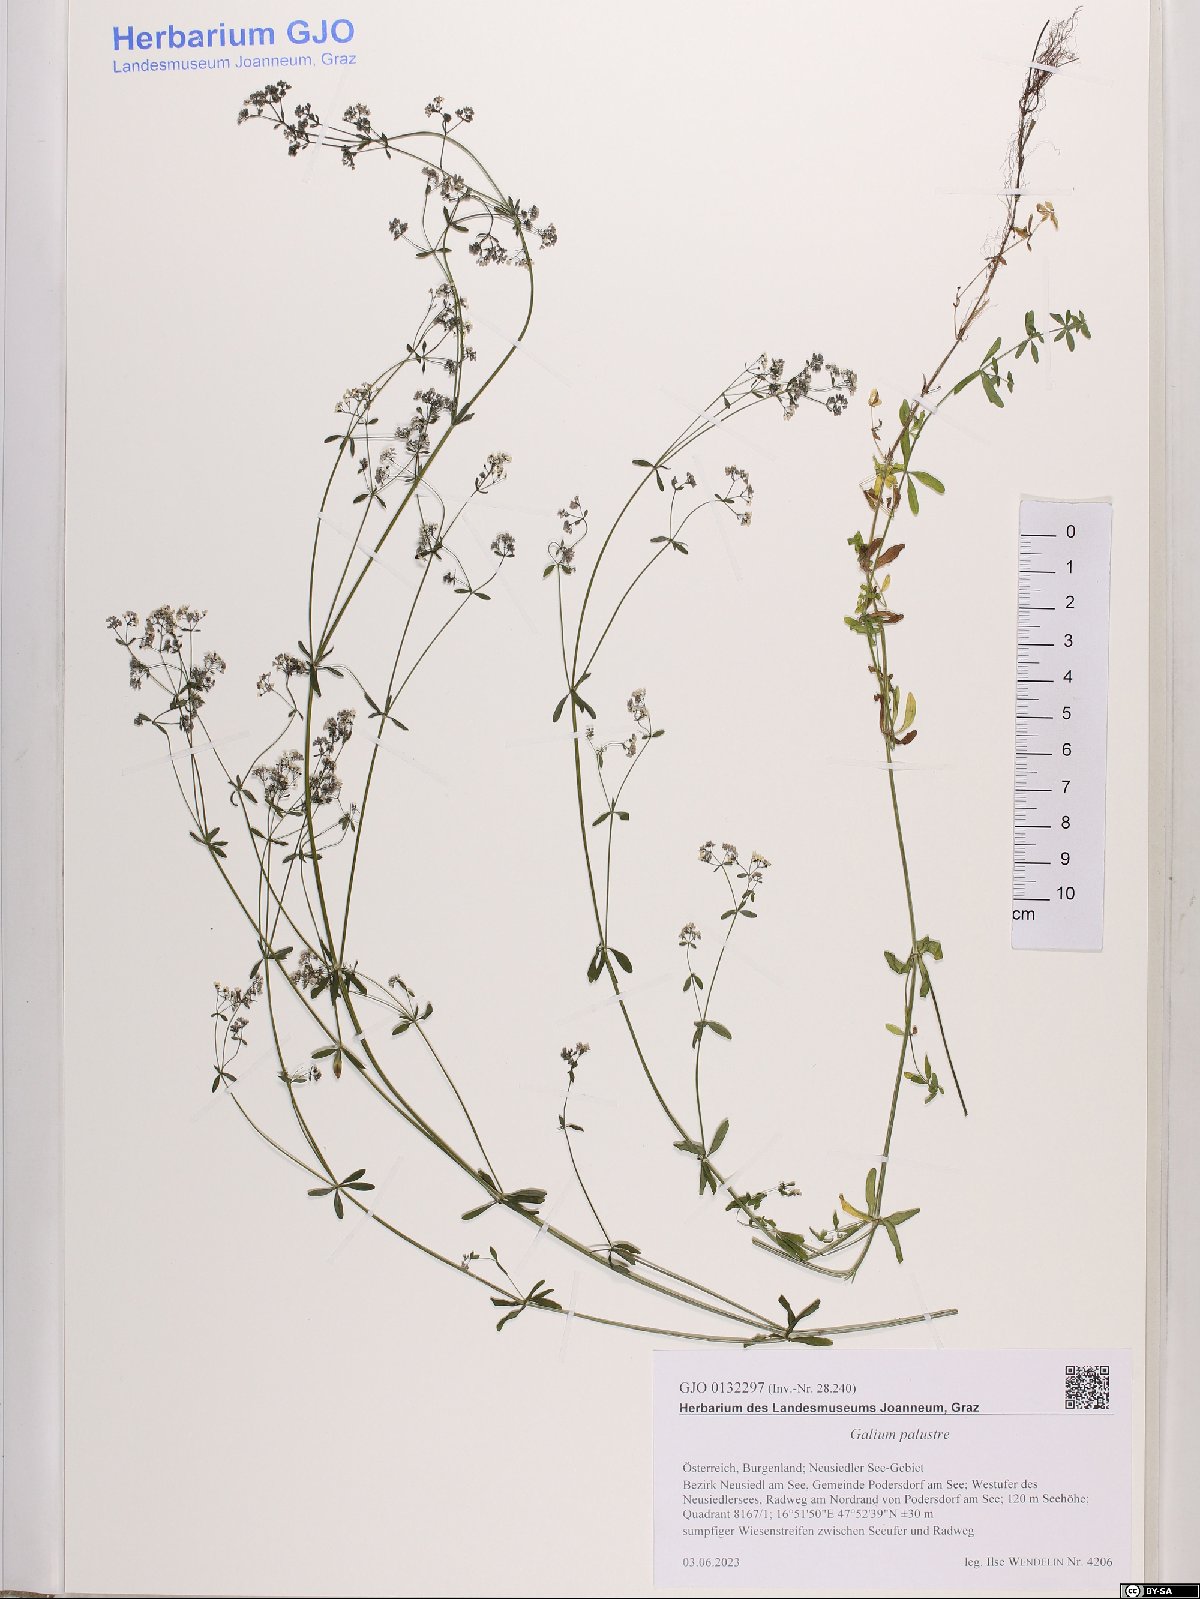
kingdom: Plantae
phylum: Tracheophyta
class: Magnoliopsida
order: Gentianales
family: Rubiaceae
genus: Galium
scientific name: Galium palustre
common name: Common marsh-bedstraw
